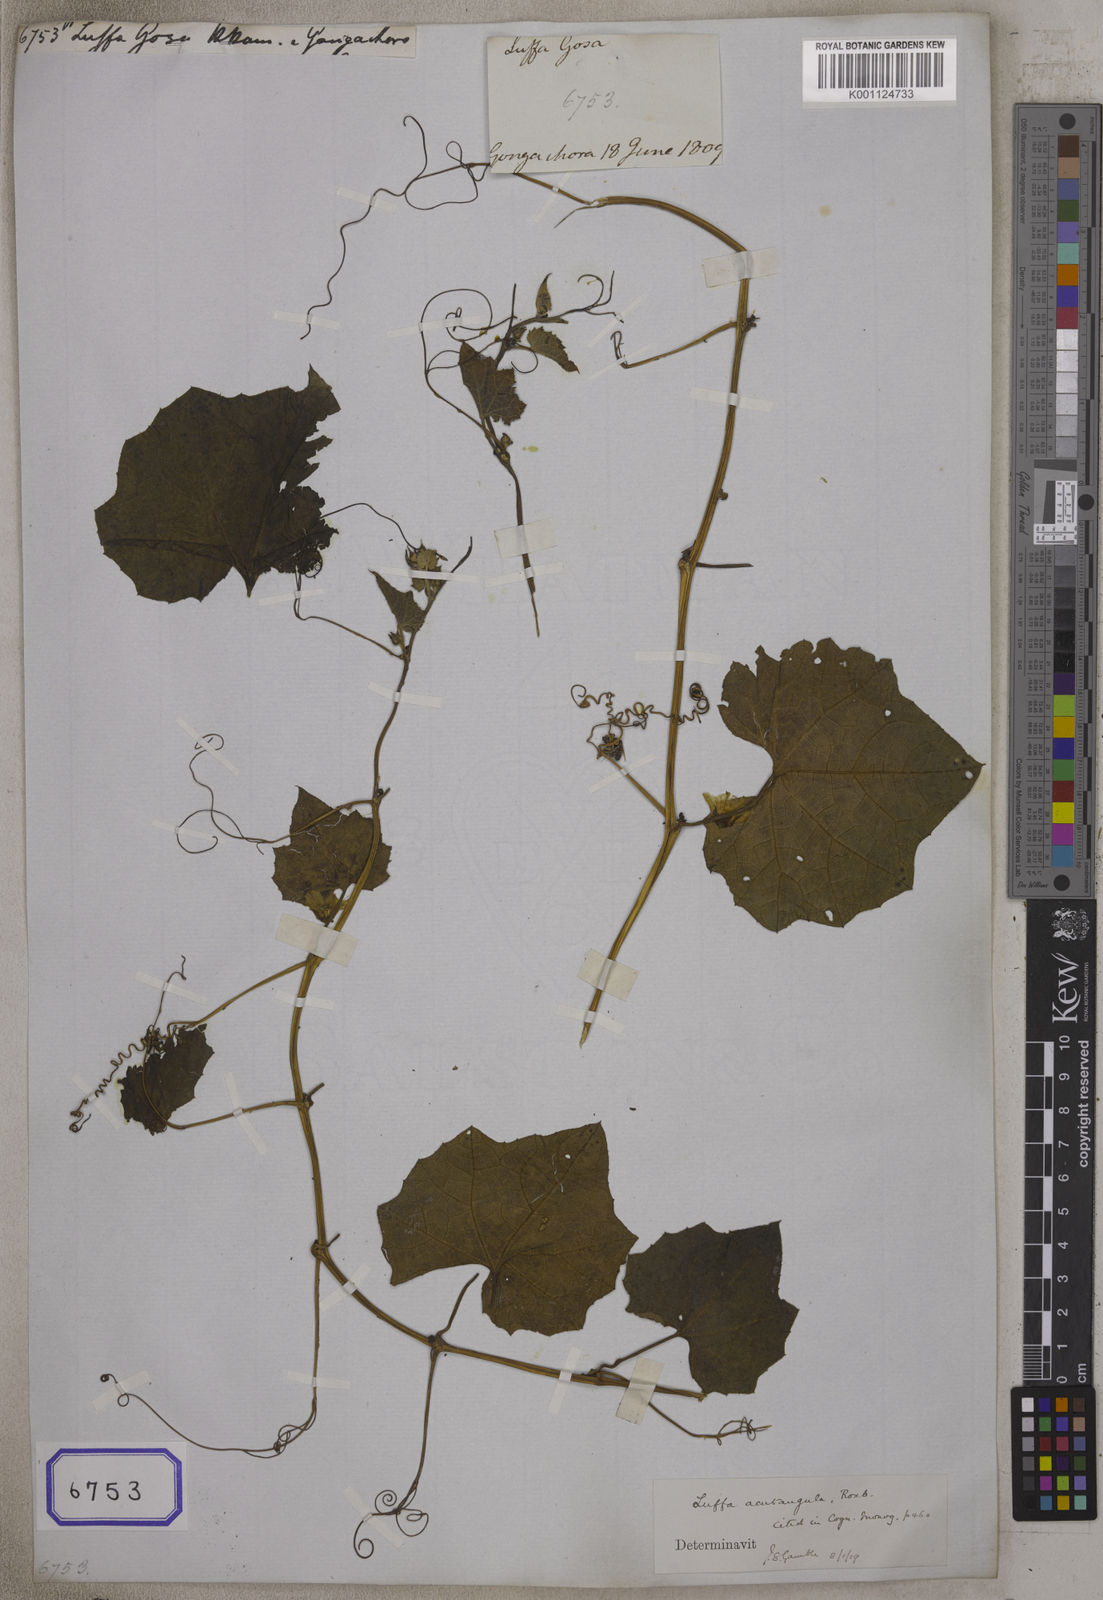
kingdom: Plantae
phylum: Tracheophyta
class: Magnoliopsida
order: Cucurbitales
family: Cucurbitaceae
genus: Luffa
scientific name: Luffa acutangula
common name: Sinkwa towelsponge
